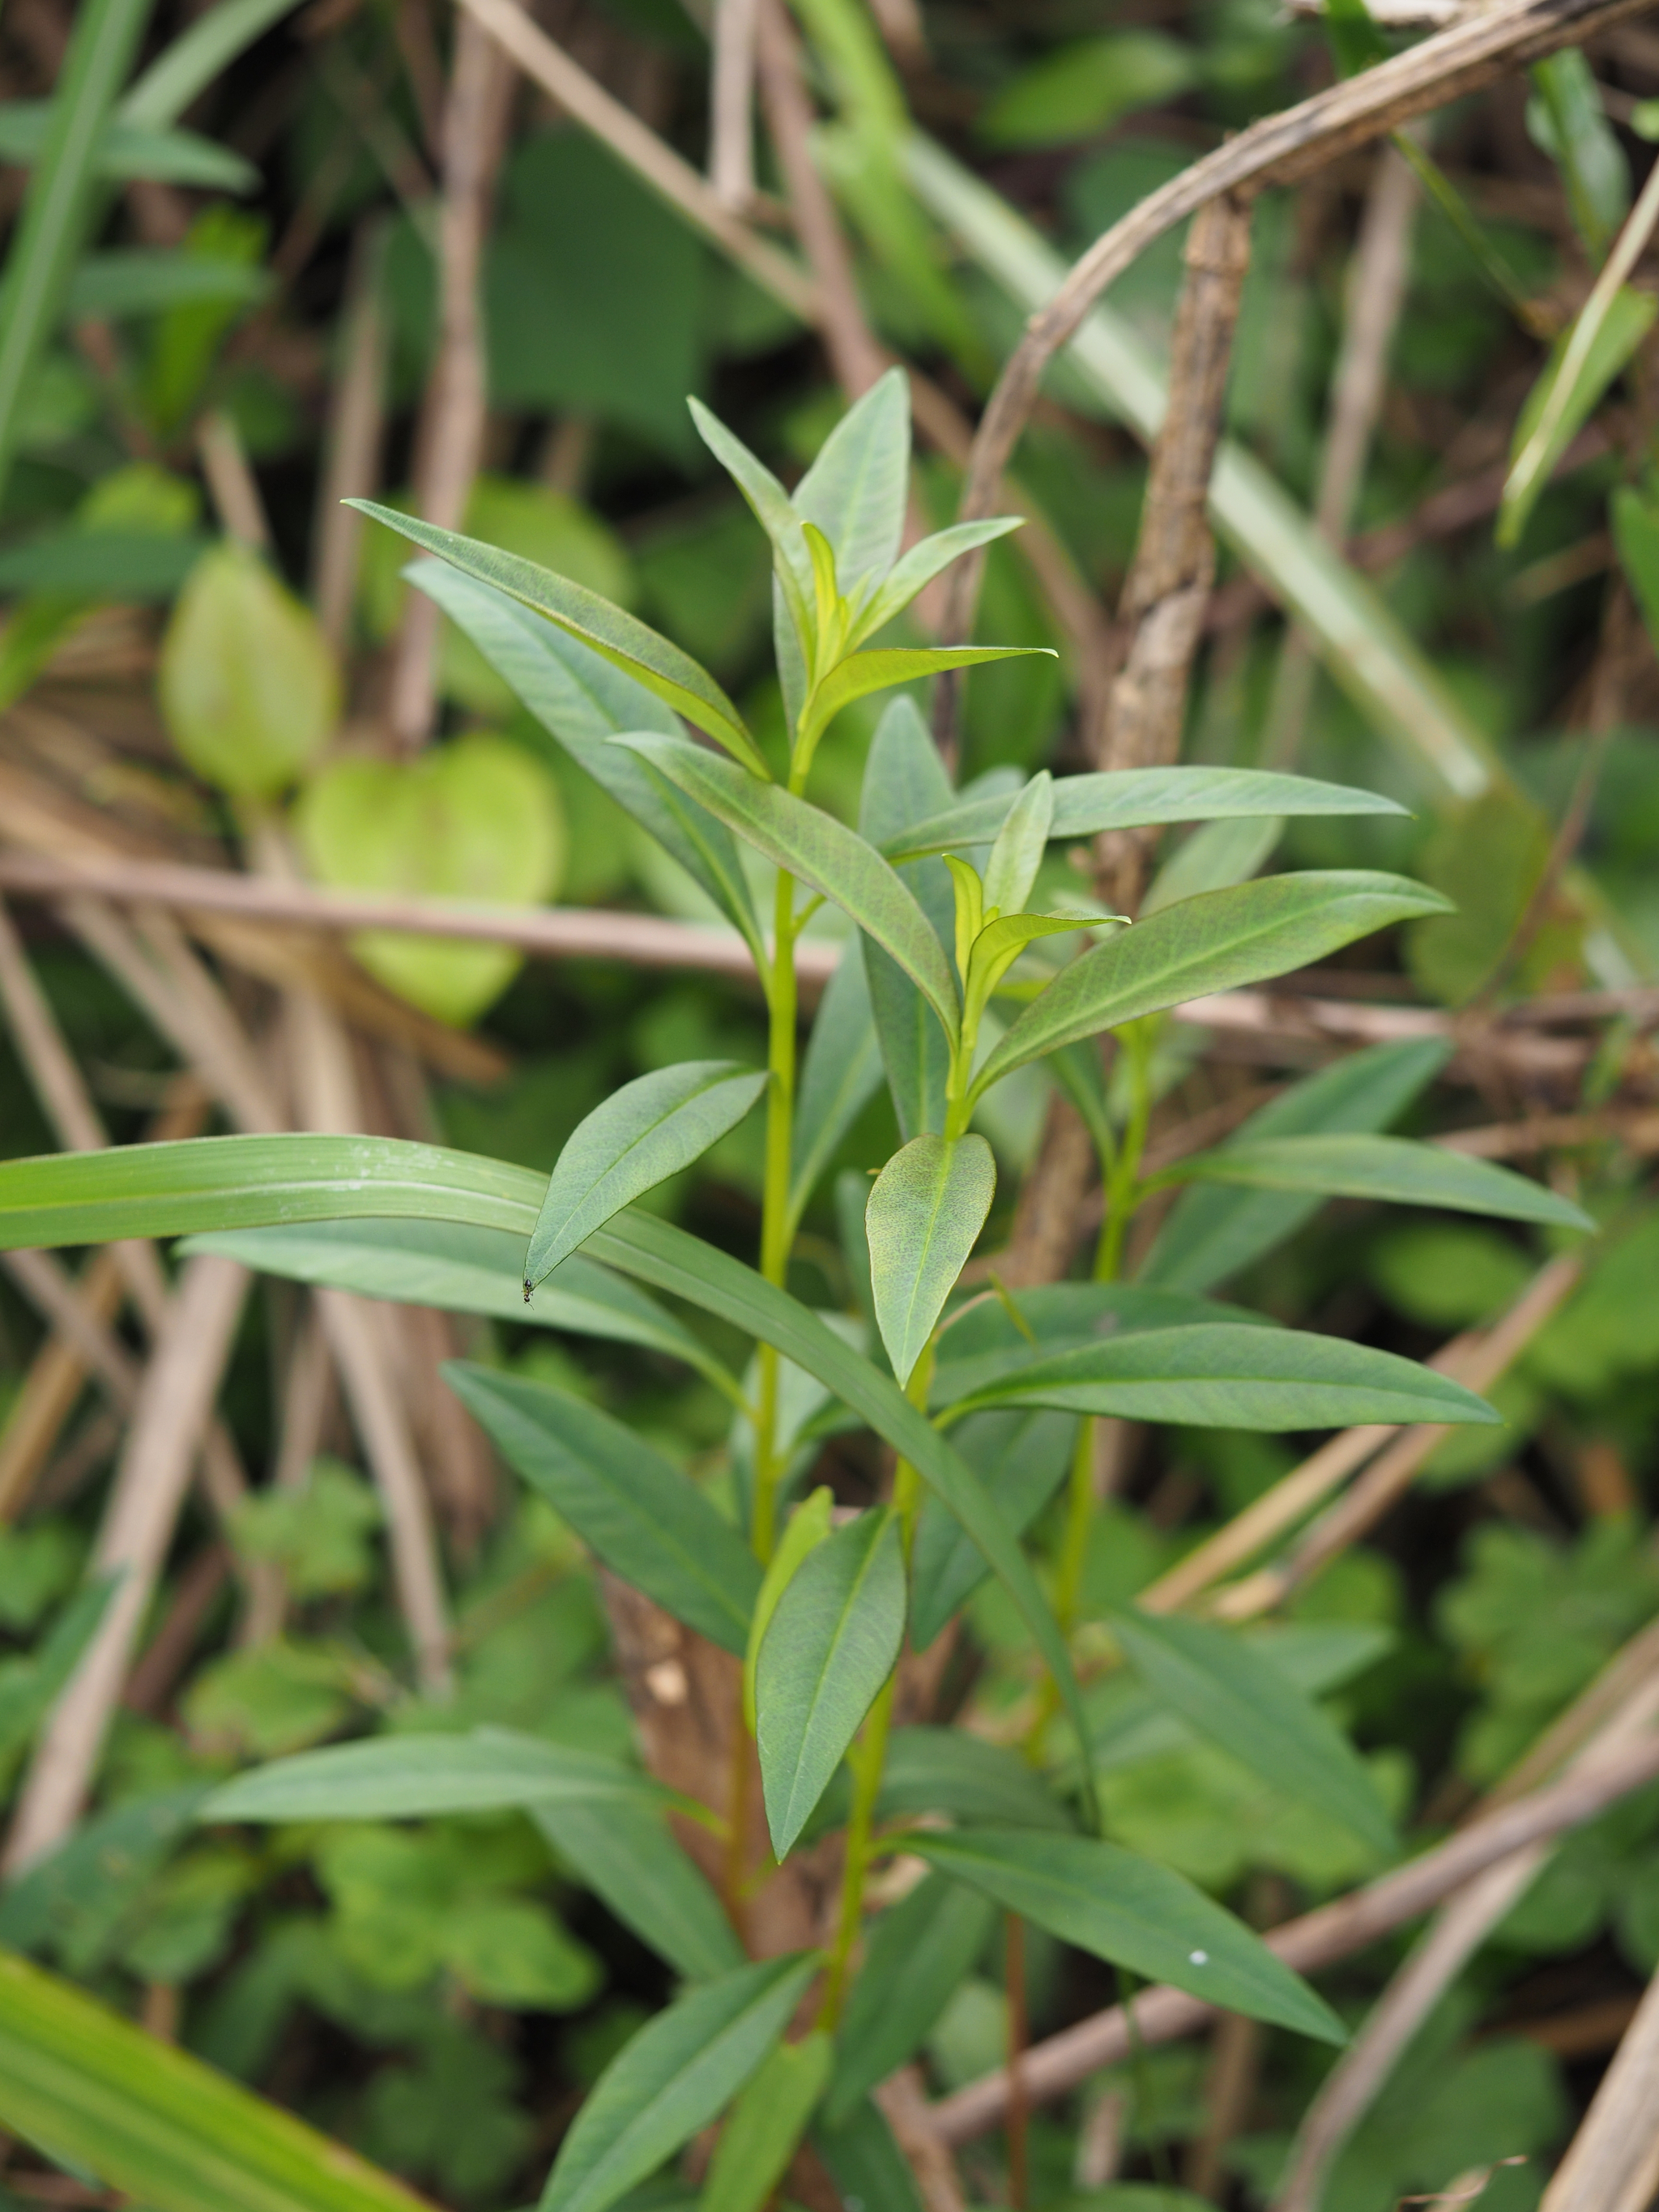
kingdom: Plantae
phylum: Tracheophyta
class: Magnoliopsida
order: Ericales
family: Primulaceae
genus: Lysimachia
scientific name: Lysimachia fortunei
